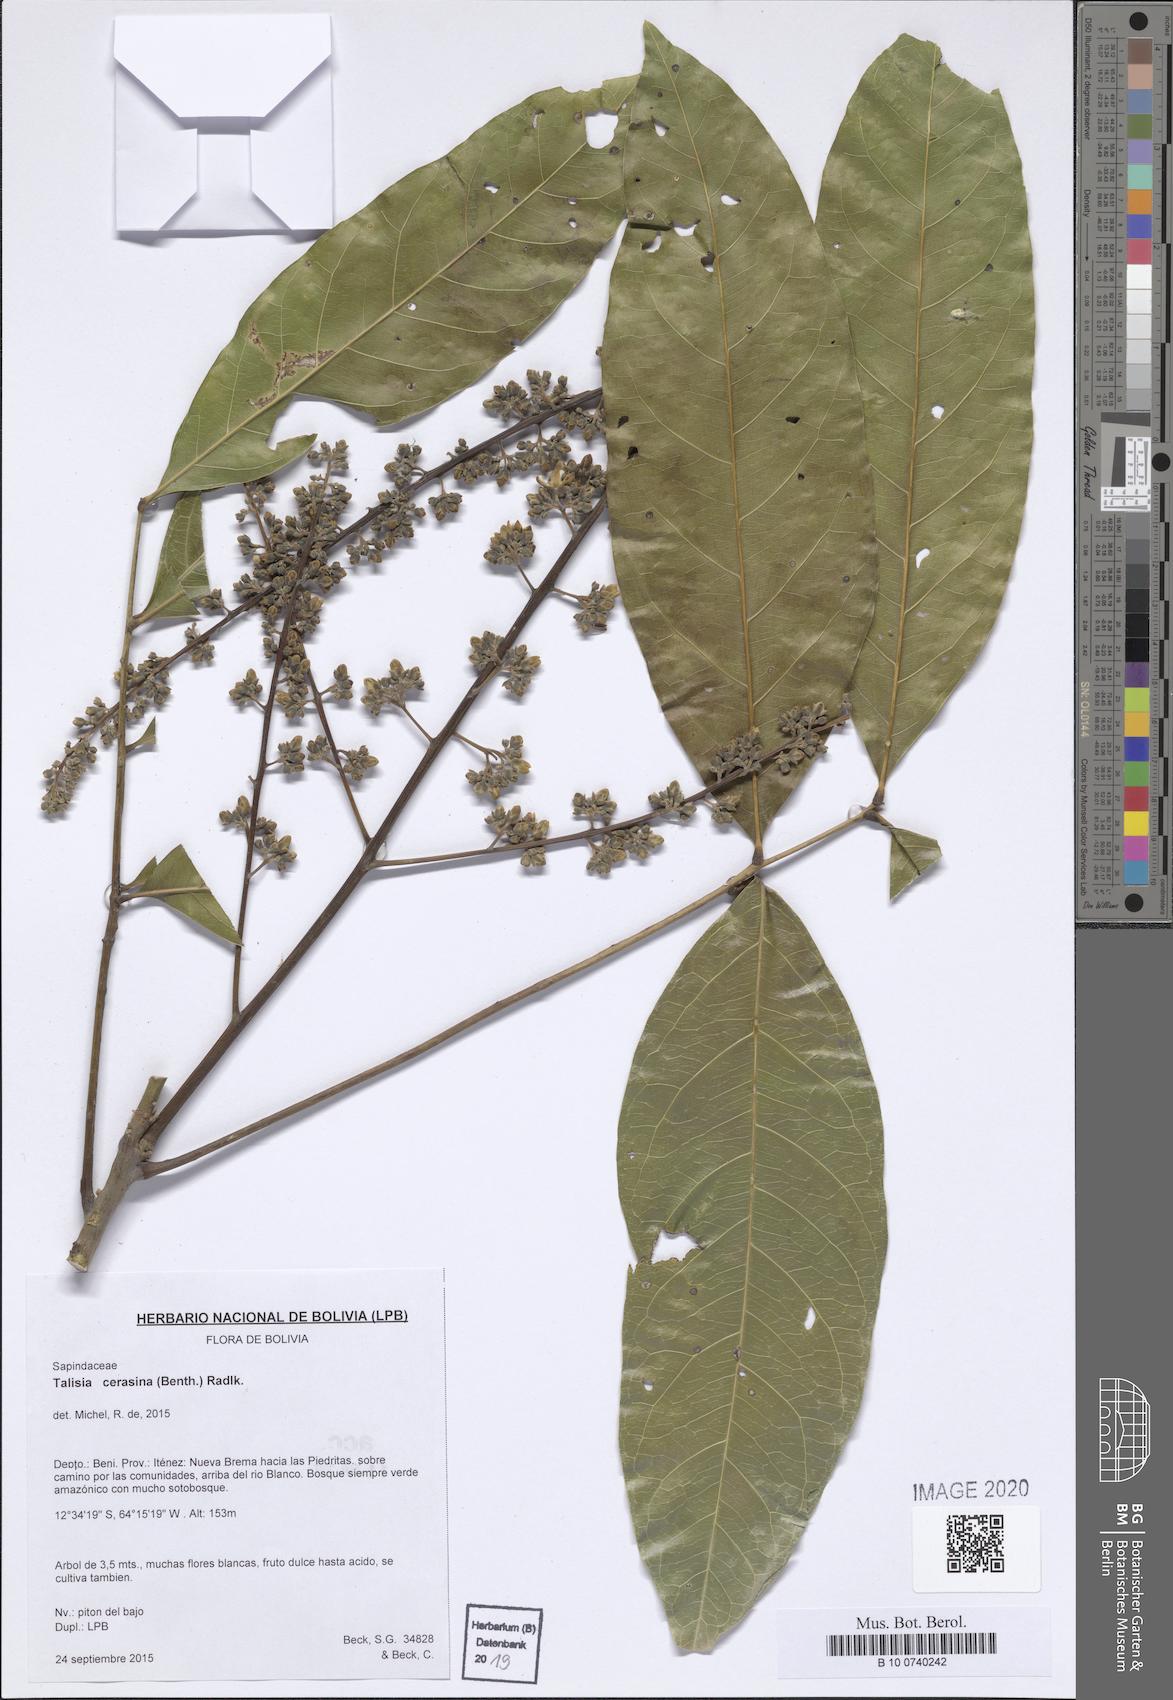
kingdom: Plantae
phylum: Tracheophyta
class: Magnoliopsida
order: Sapindales
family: Sapindaceae
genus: Talisia
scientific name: Talisia cerasina
